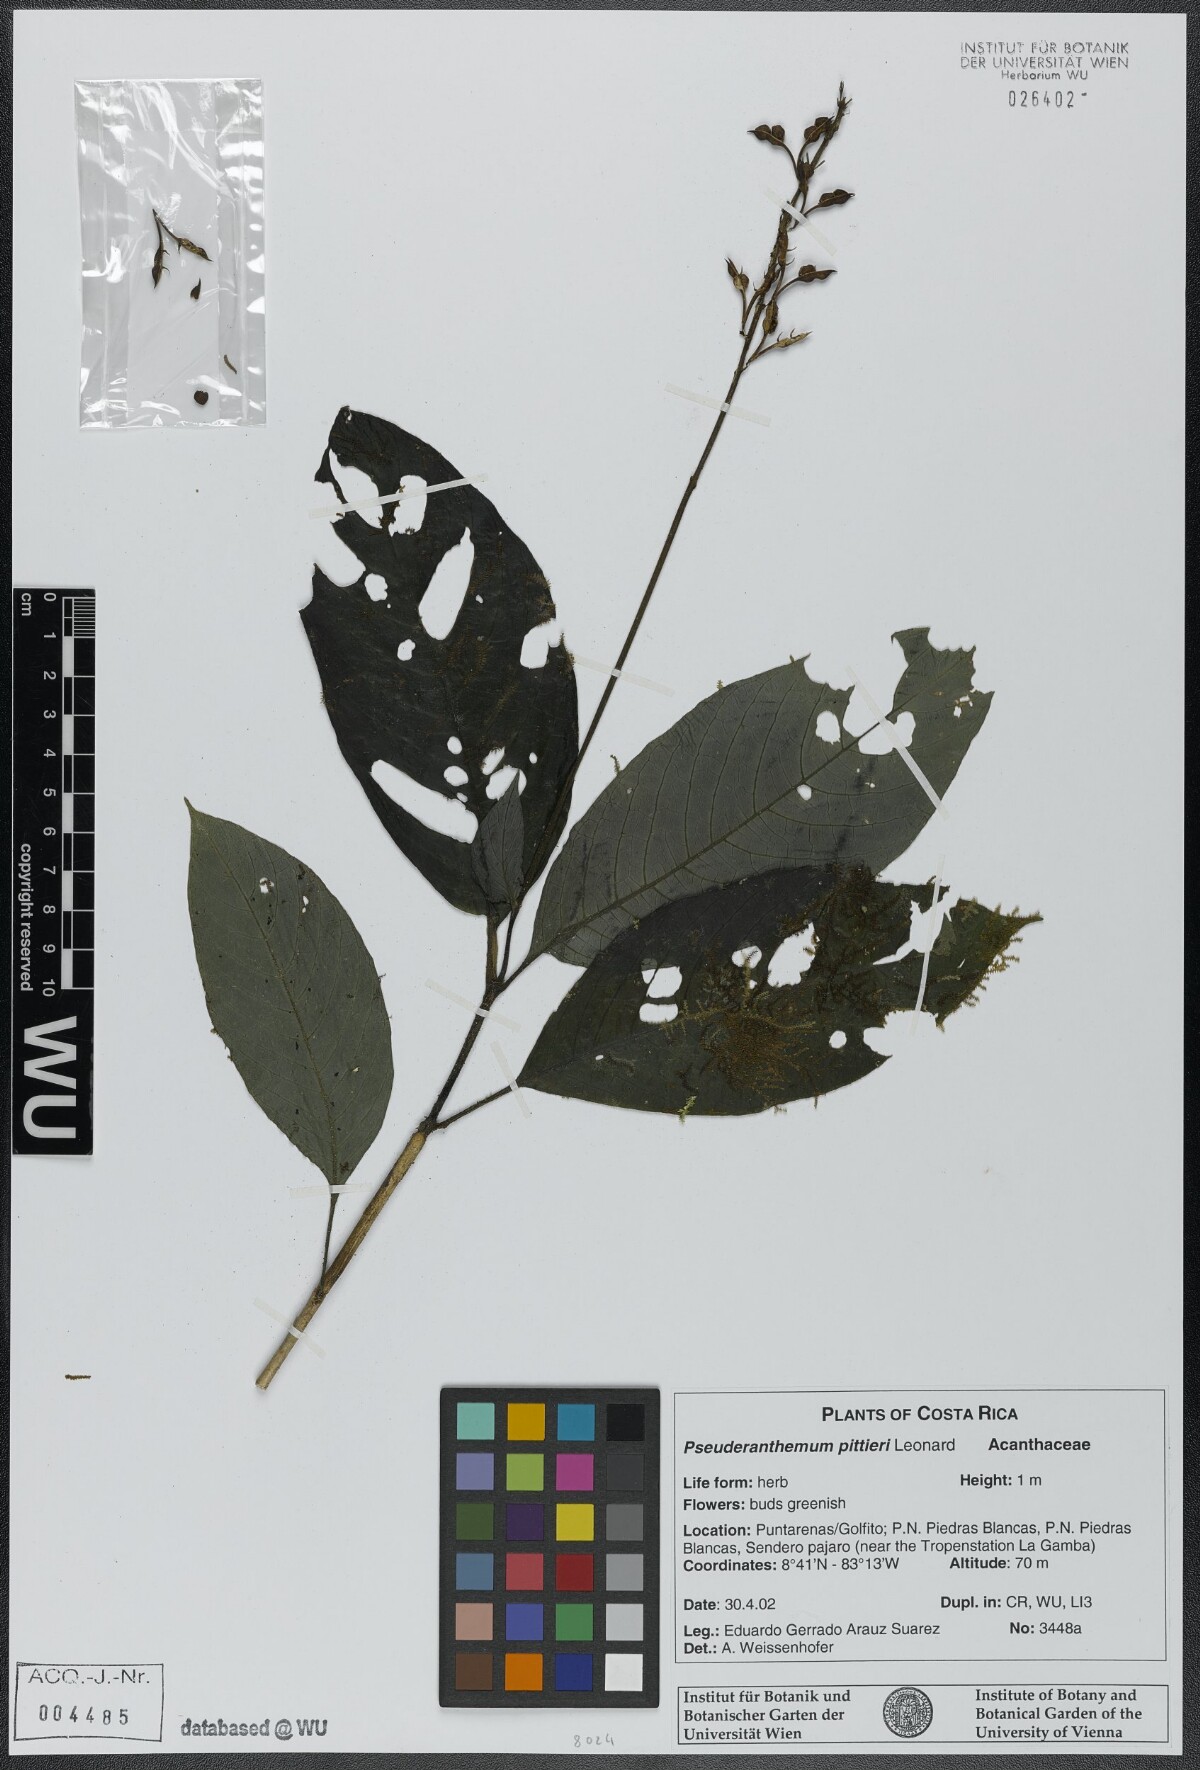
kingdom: Plantae
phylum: Tracheophyta
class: Magnoliopsida
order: Lamiales
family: Acanthaceae
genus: Pseuderanthemum
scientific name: Pseuderanthemum pittieri
